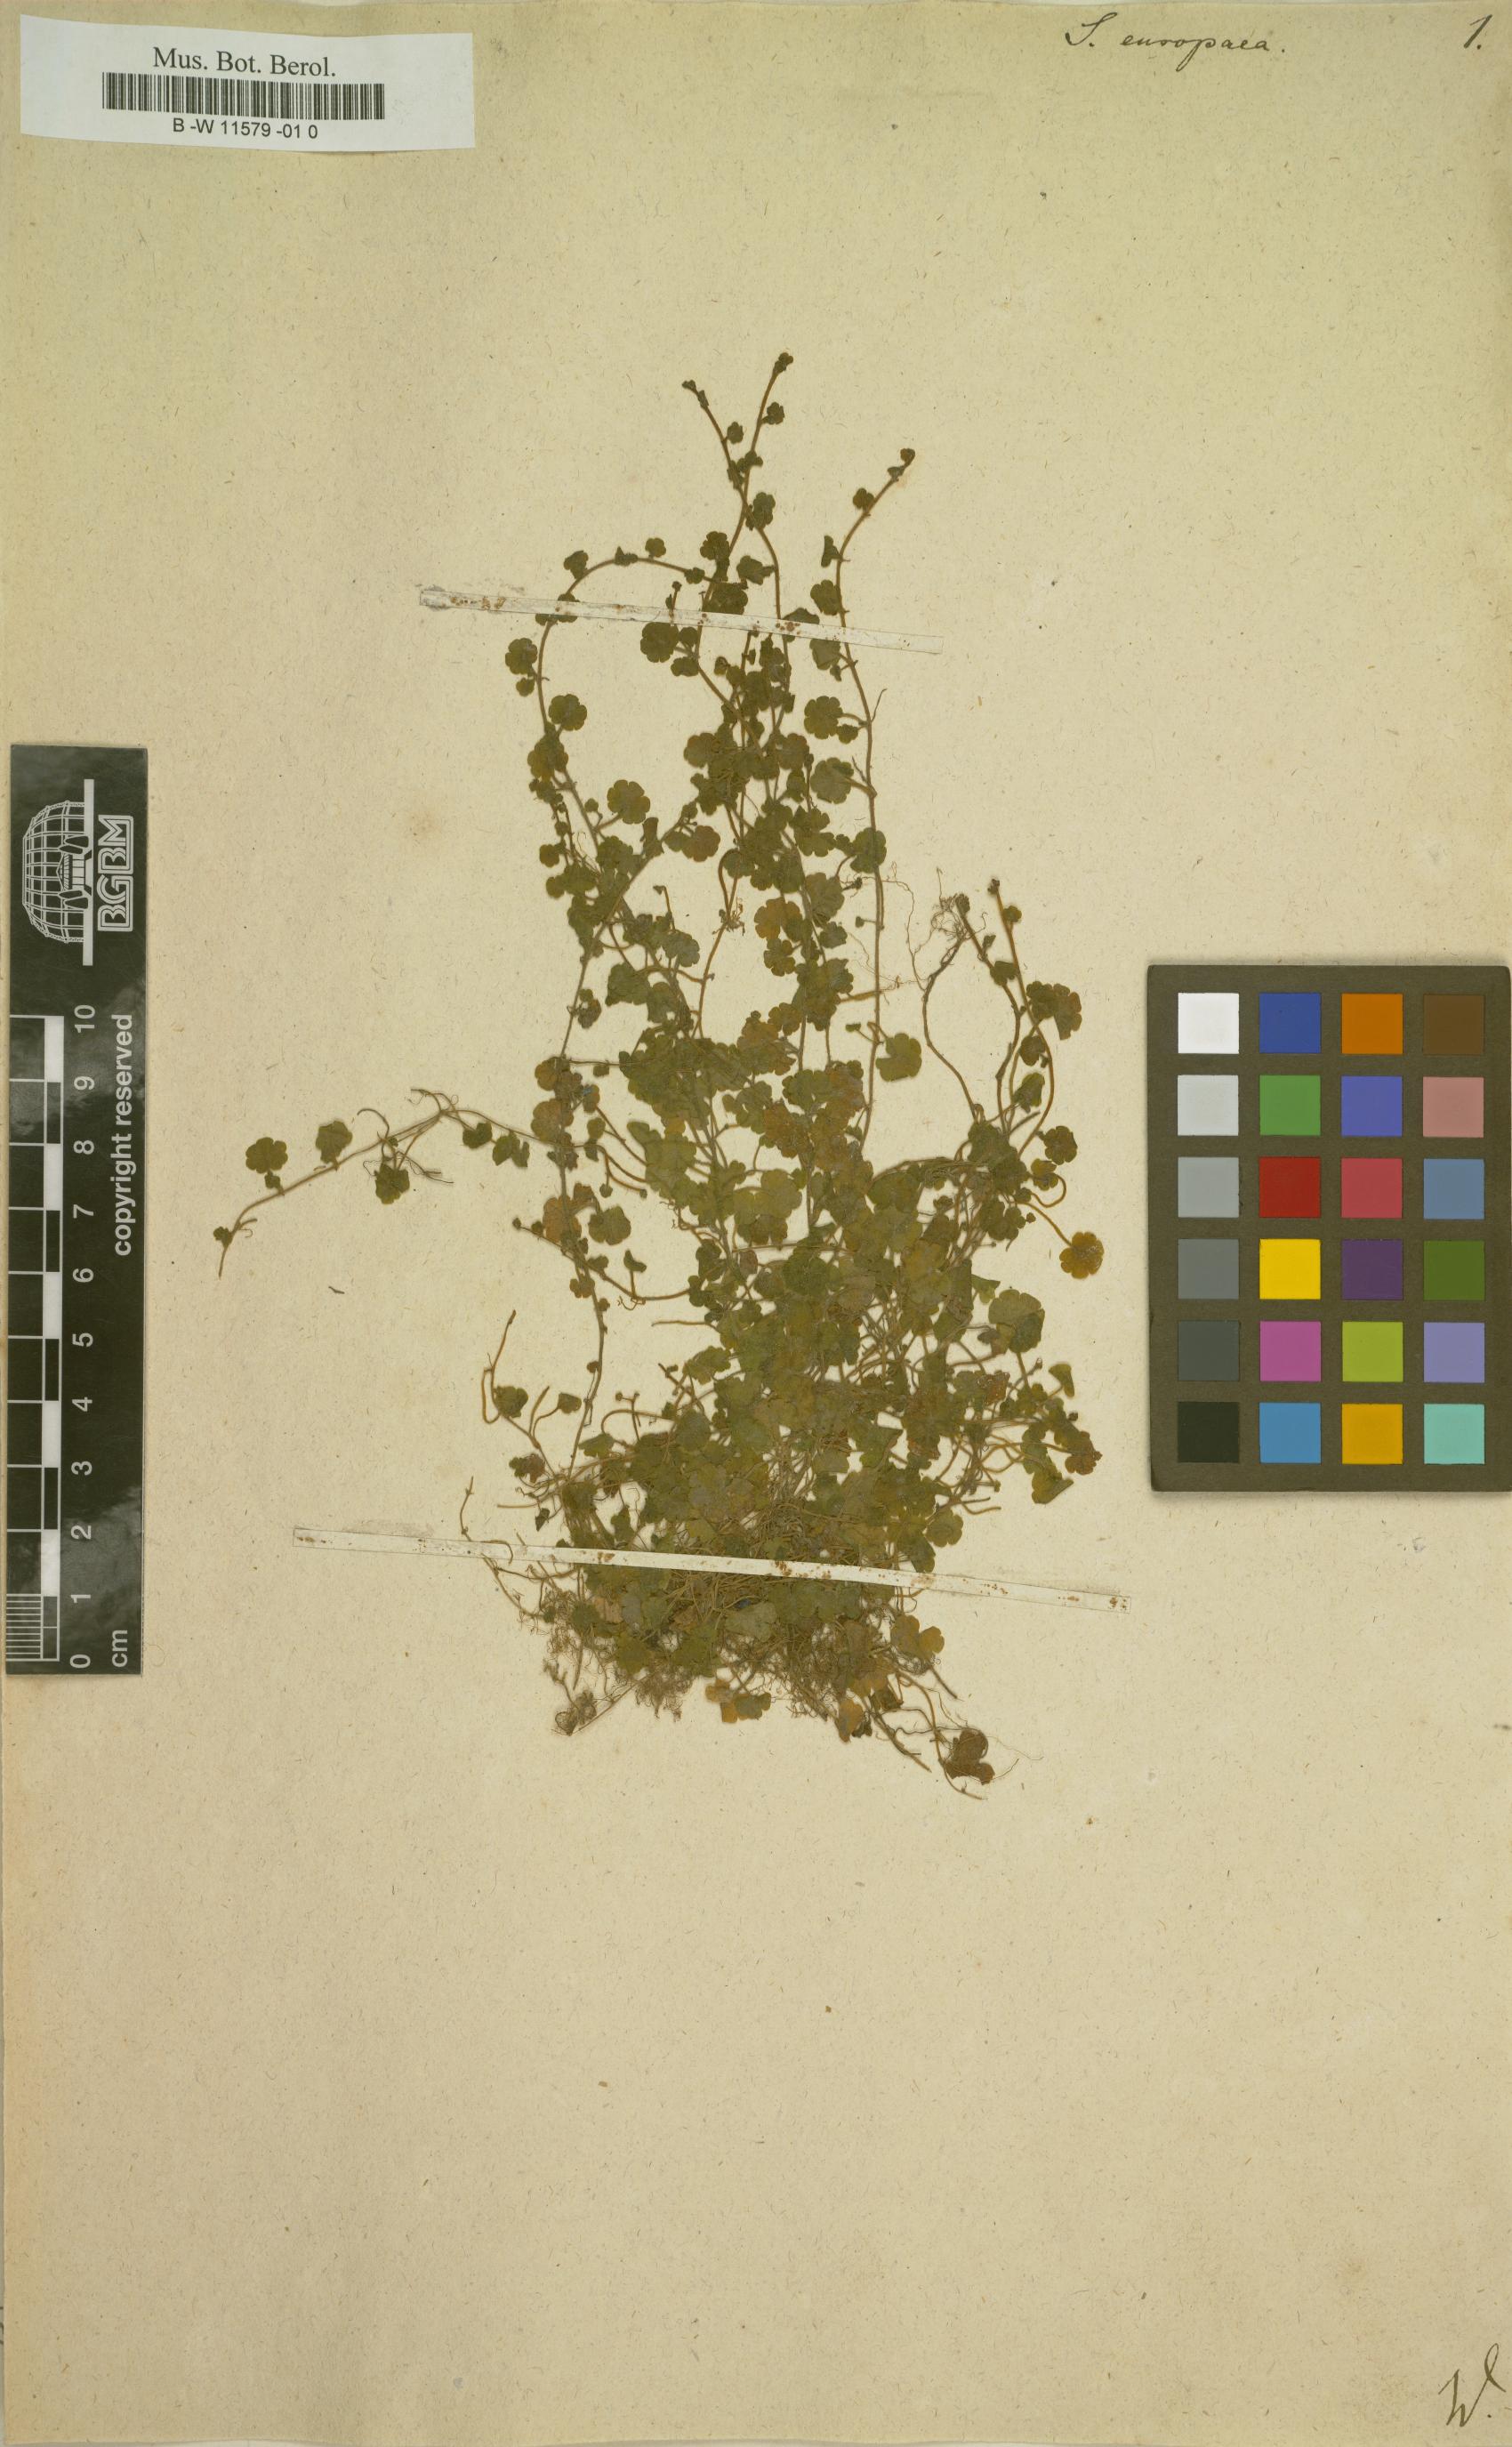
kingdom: Plantae
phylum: Tracheophyta
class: Magnoliopsida
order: Lamiales
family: Plantaginaceae
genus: Sibthorpia
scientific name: Sibthorpia europaea
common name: Cornish moneywort
